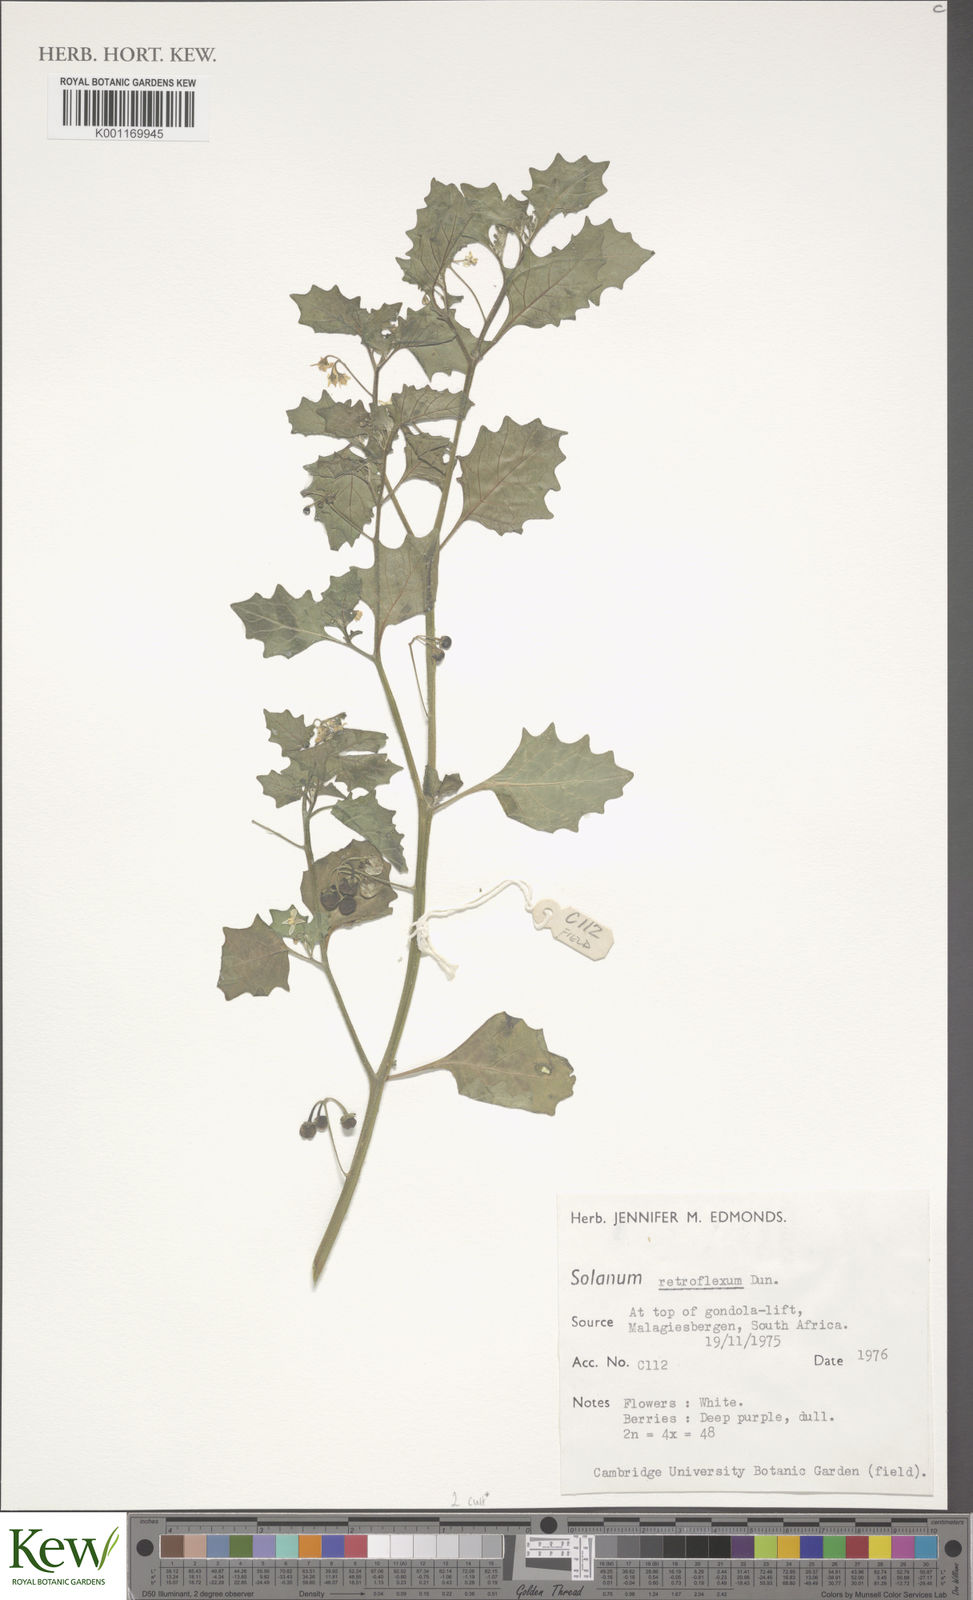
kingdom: Plantae
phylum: Tracheophyta
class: Magnoliopsida
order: Solanales
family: Solanaceae
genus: Solanum
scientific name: Solanum retroflexum
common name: Wonderberry
